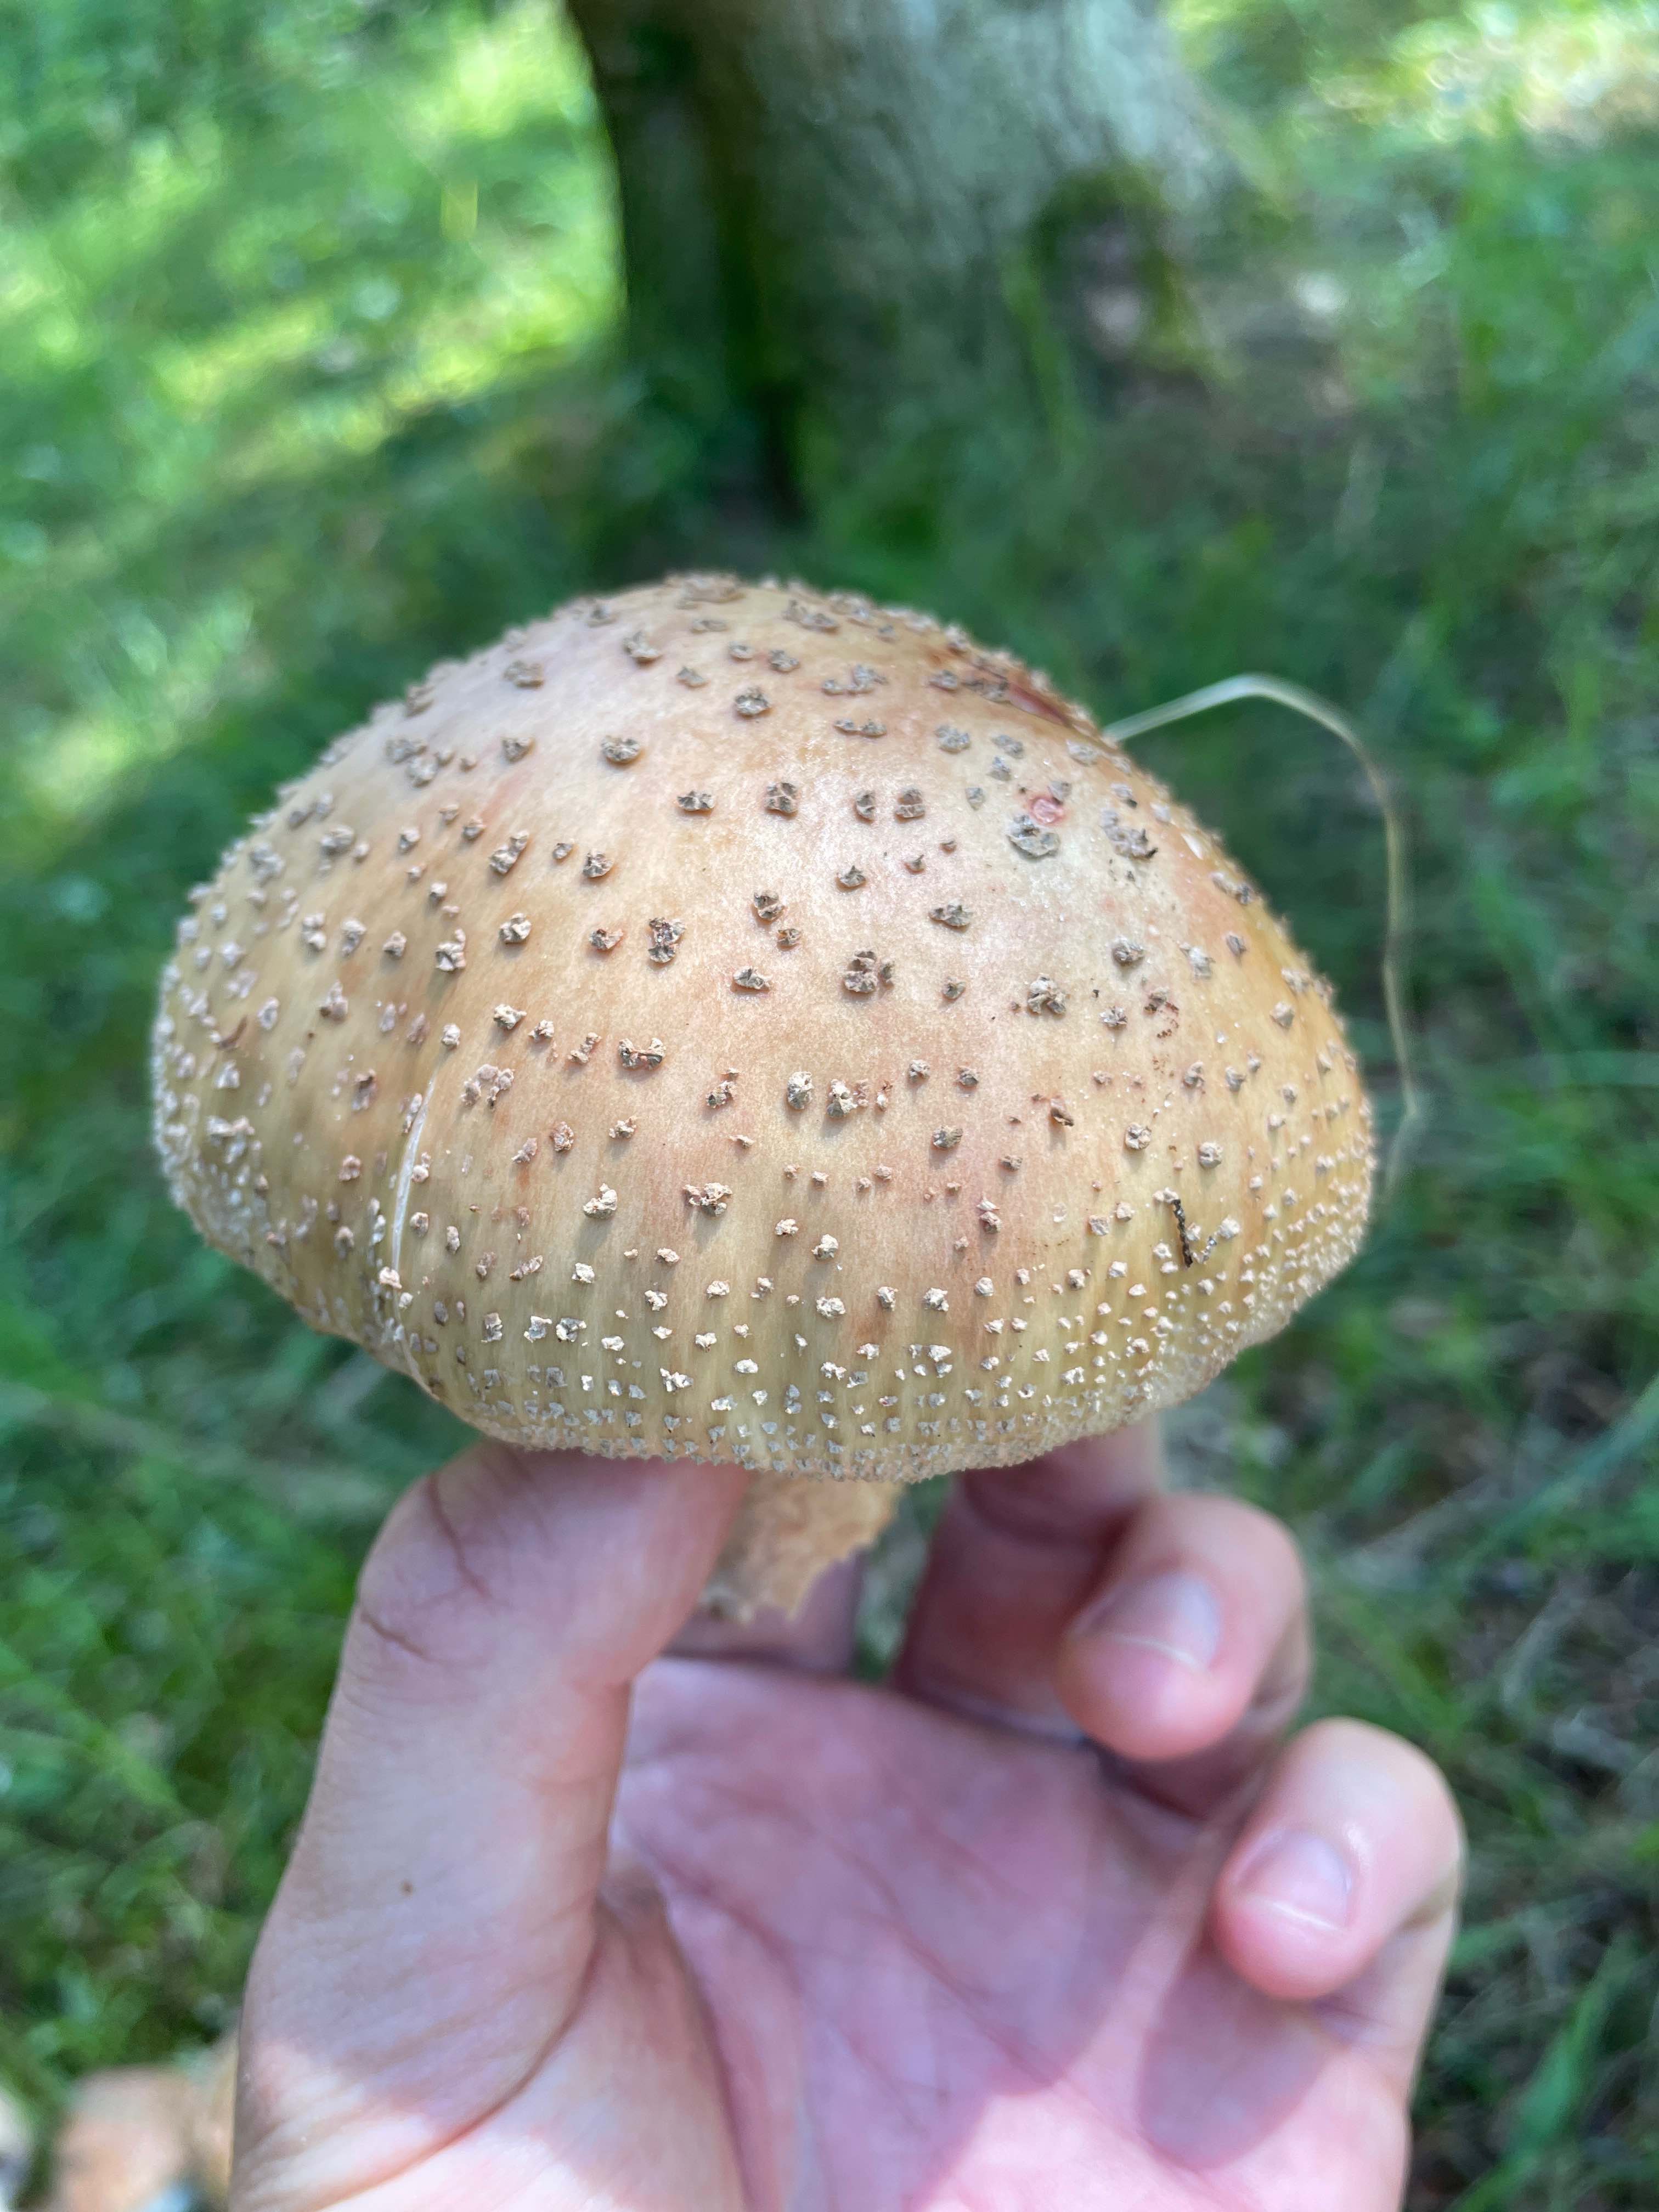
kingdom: Fungi
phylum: Basidiomycota
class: Agaricomycetes
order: Agaricales
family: Amanitaceae
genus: Amanita
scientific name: Amanita rubescens
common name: rødmende fluesvamp
